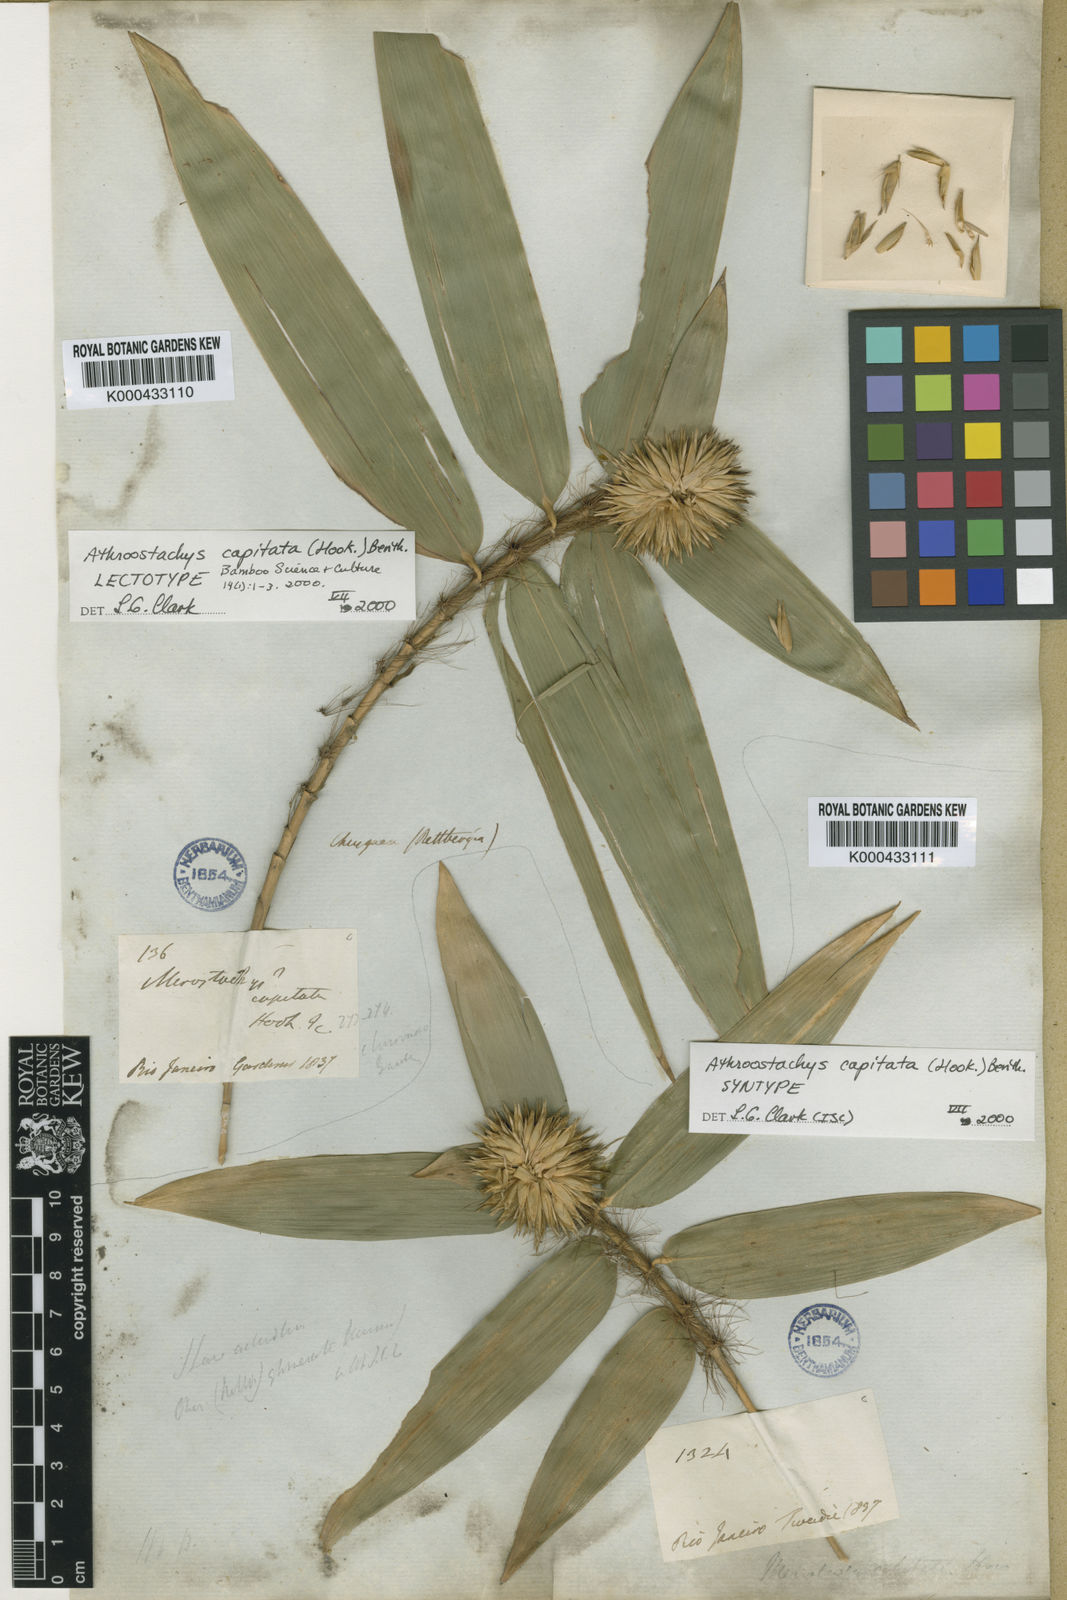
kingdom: Plantae
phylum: Tracheophyta
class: Liliopsida
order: Poales
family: Poaceae
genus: Athroostachys
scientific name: Athroostachys capitata
